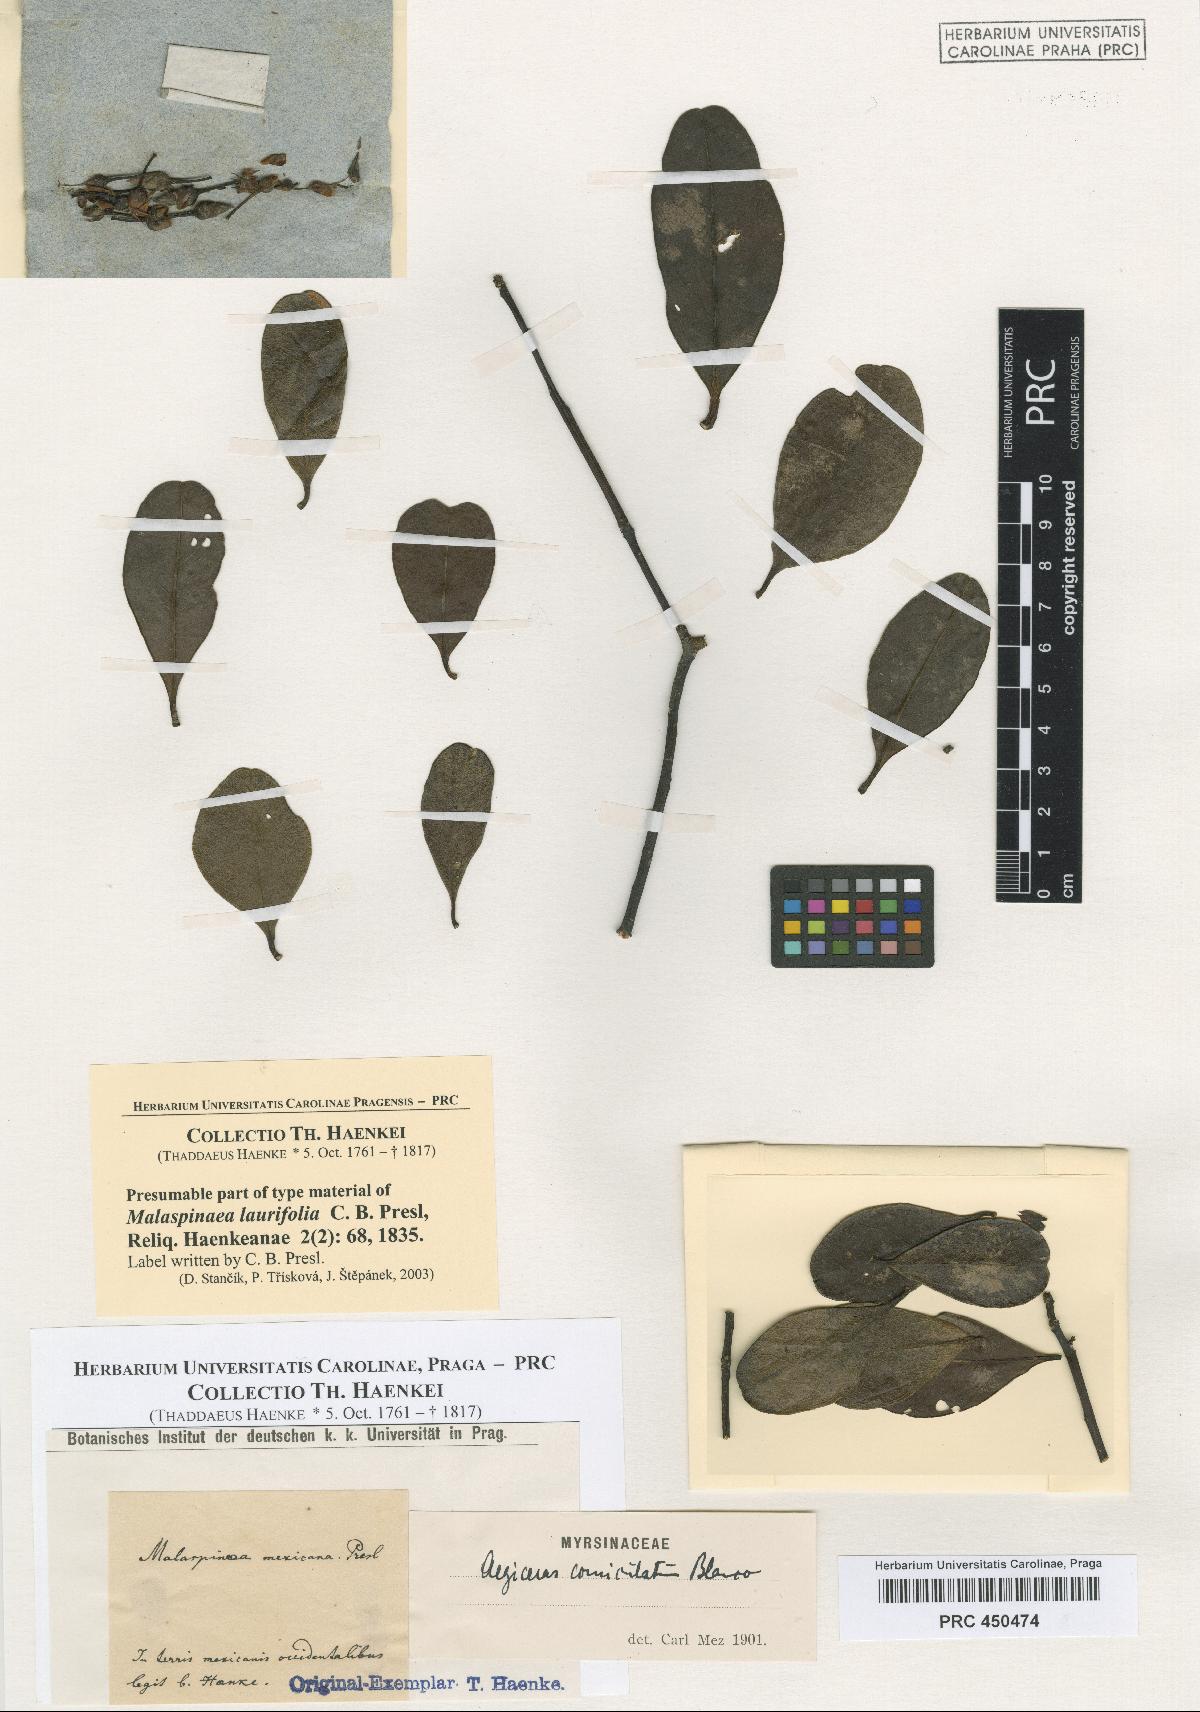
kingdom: Plantae
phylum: Tracheophyta
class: Magnoliopsida
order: Ericales
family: Primulaceae
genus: Aegiceras
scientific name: Aegiceras corniculatum
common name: River mangrove
